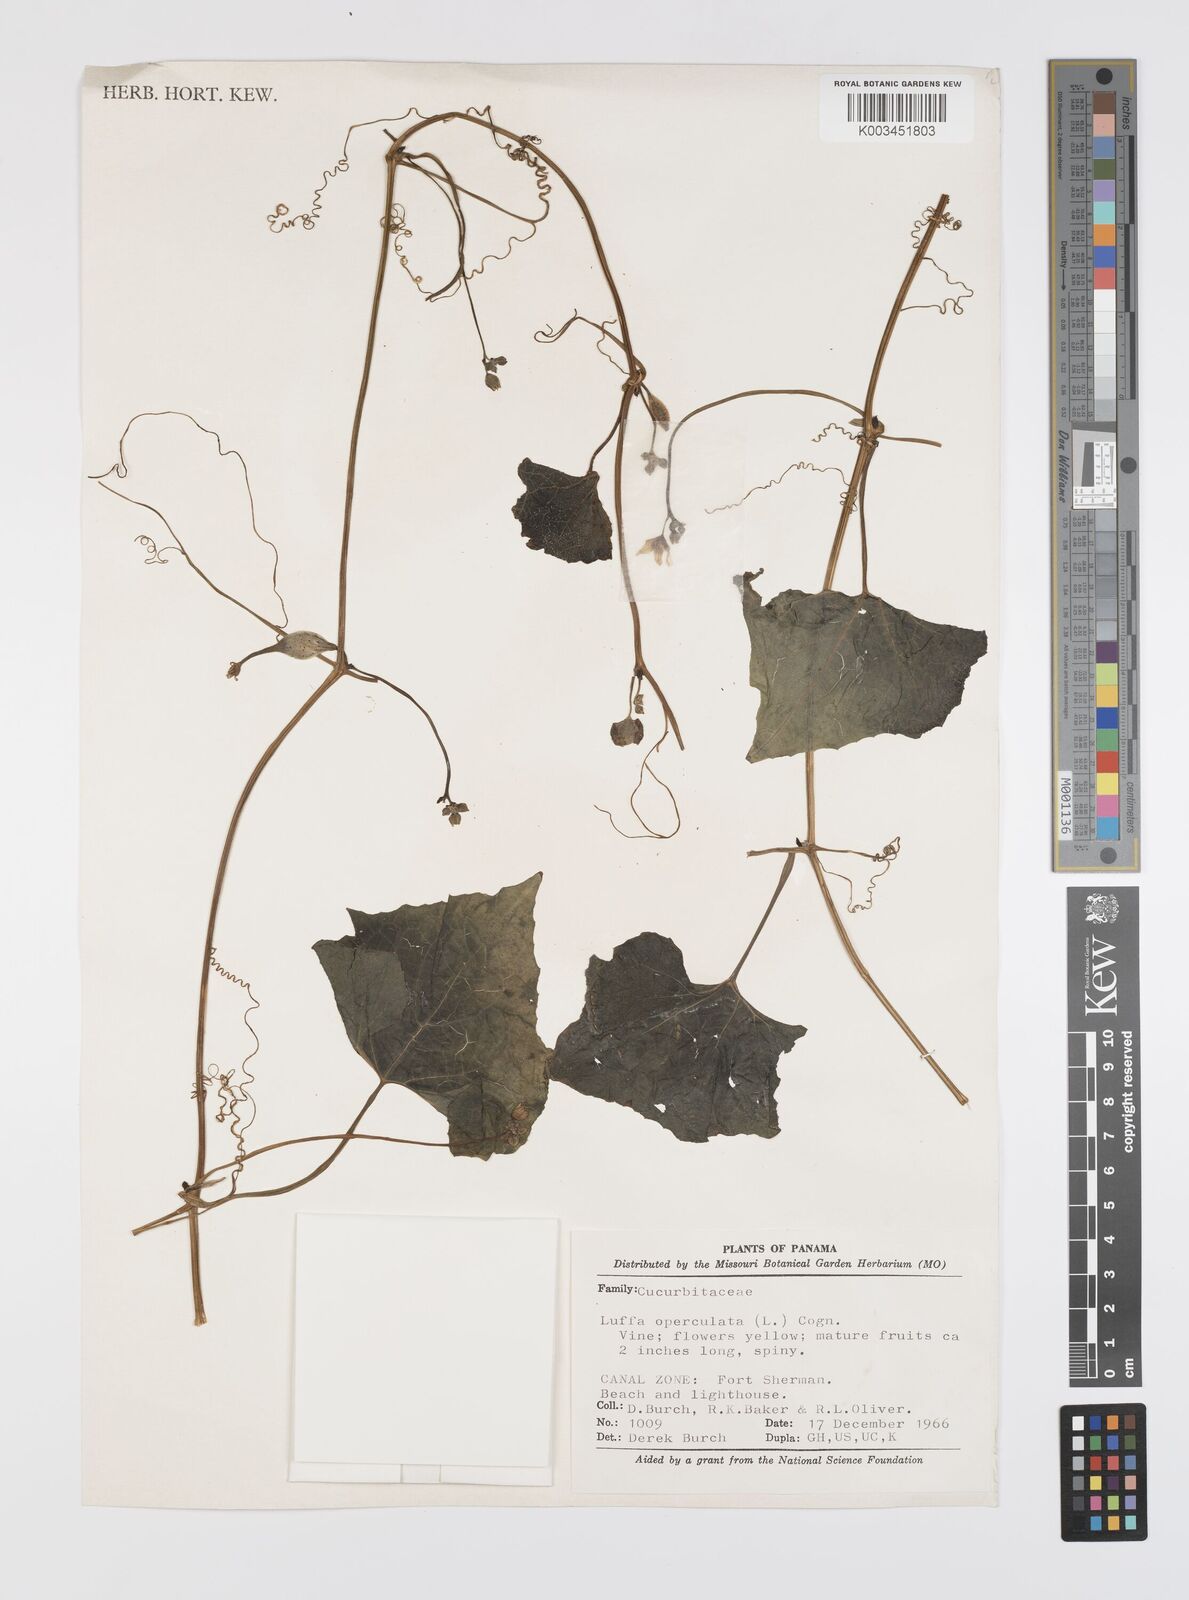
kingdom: Plantae
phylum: Tracheophyta
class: Magnoliopsida
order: Cucurbitales
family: Cucurbitaceae
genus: Luffa
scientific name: Luffa operculata
